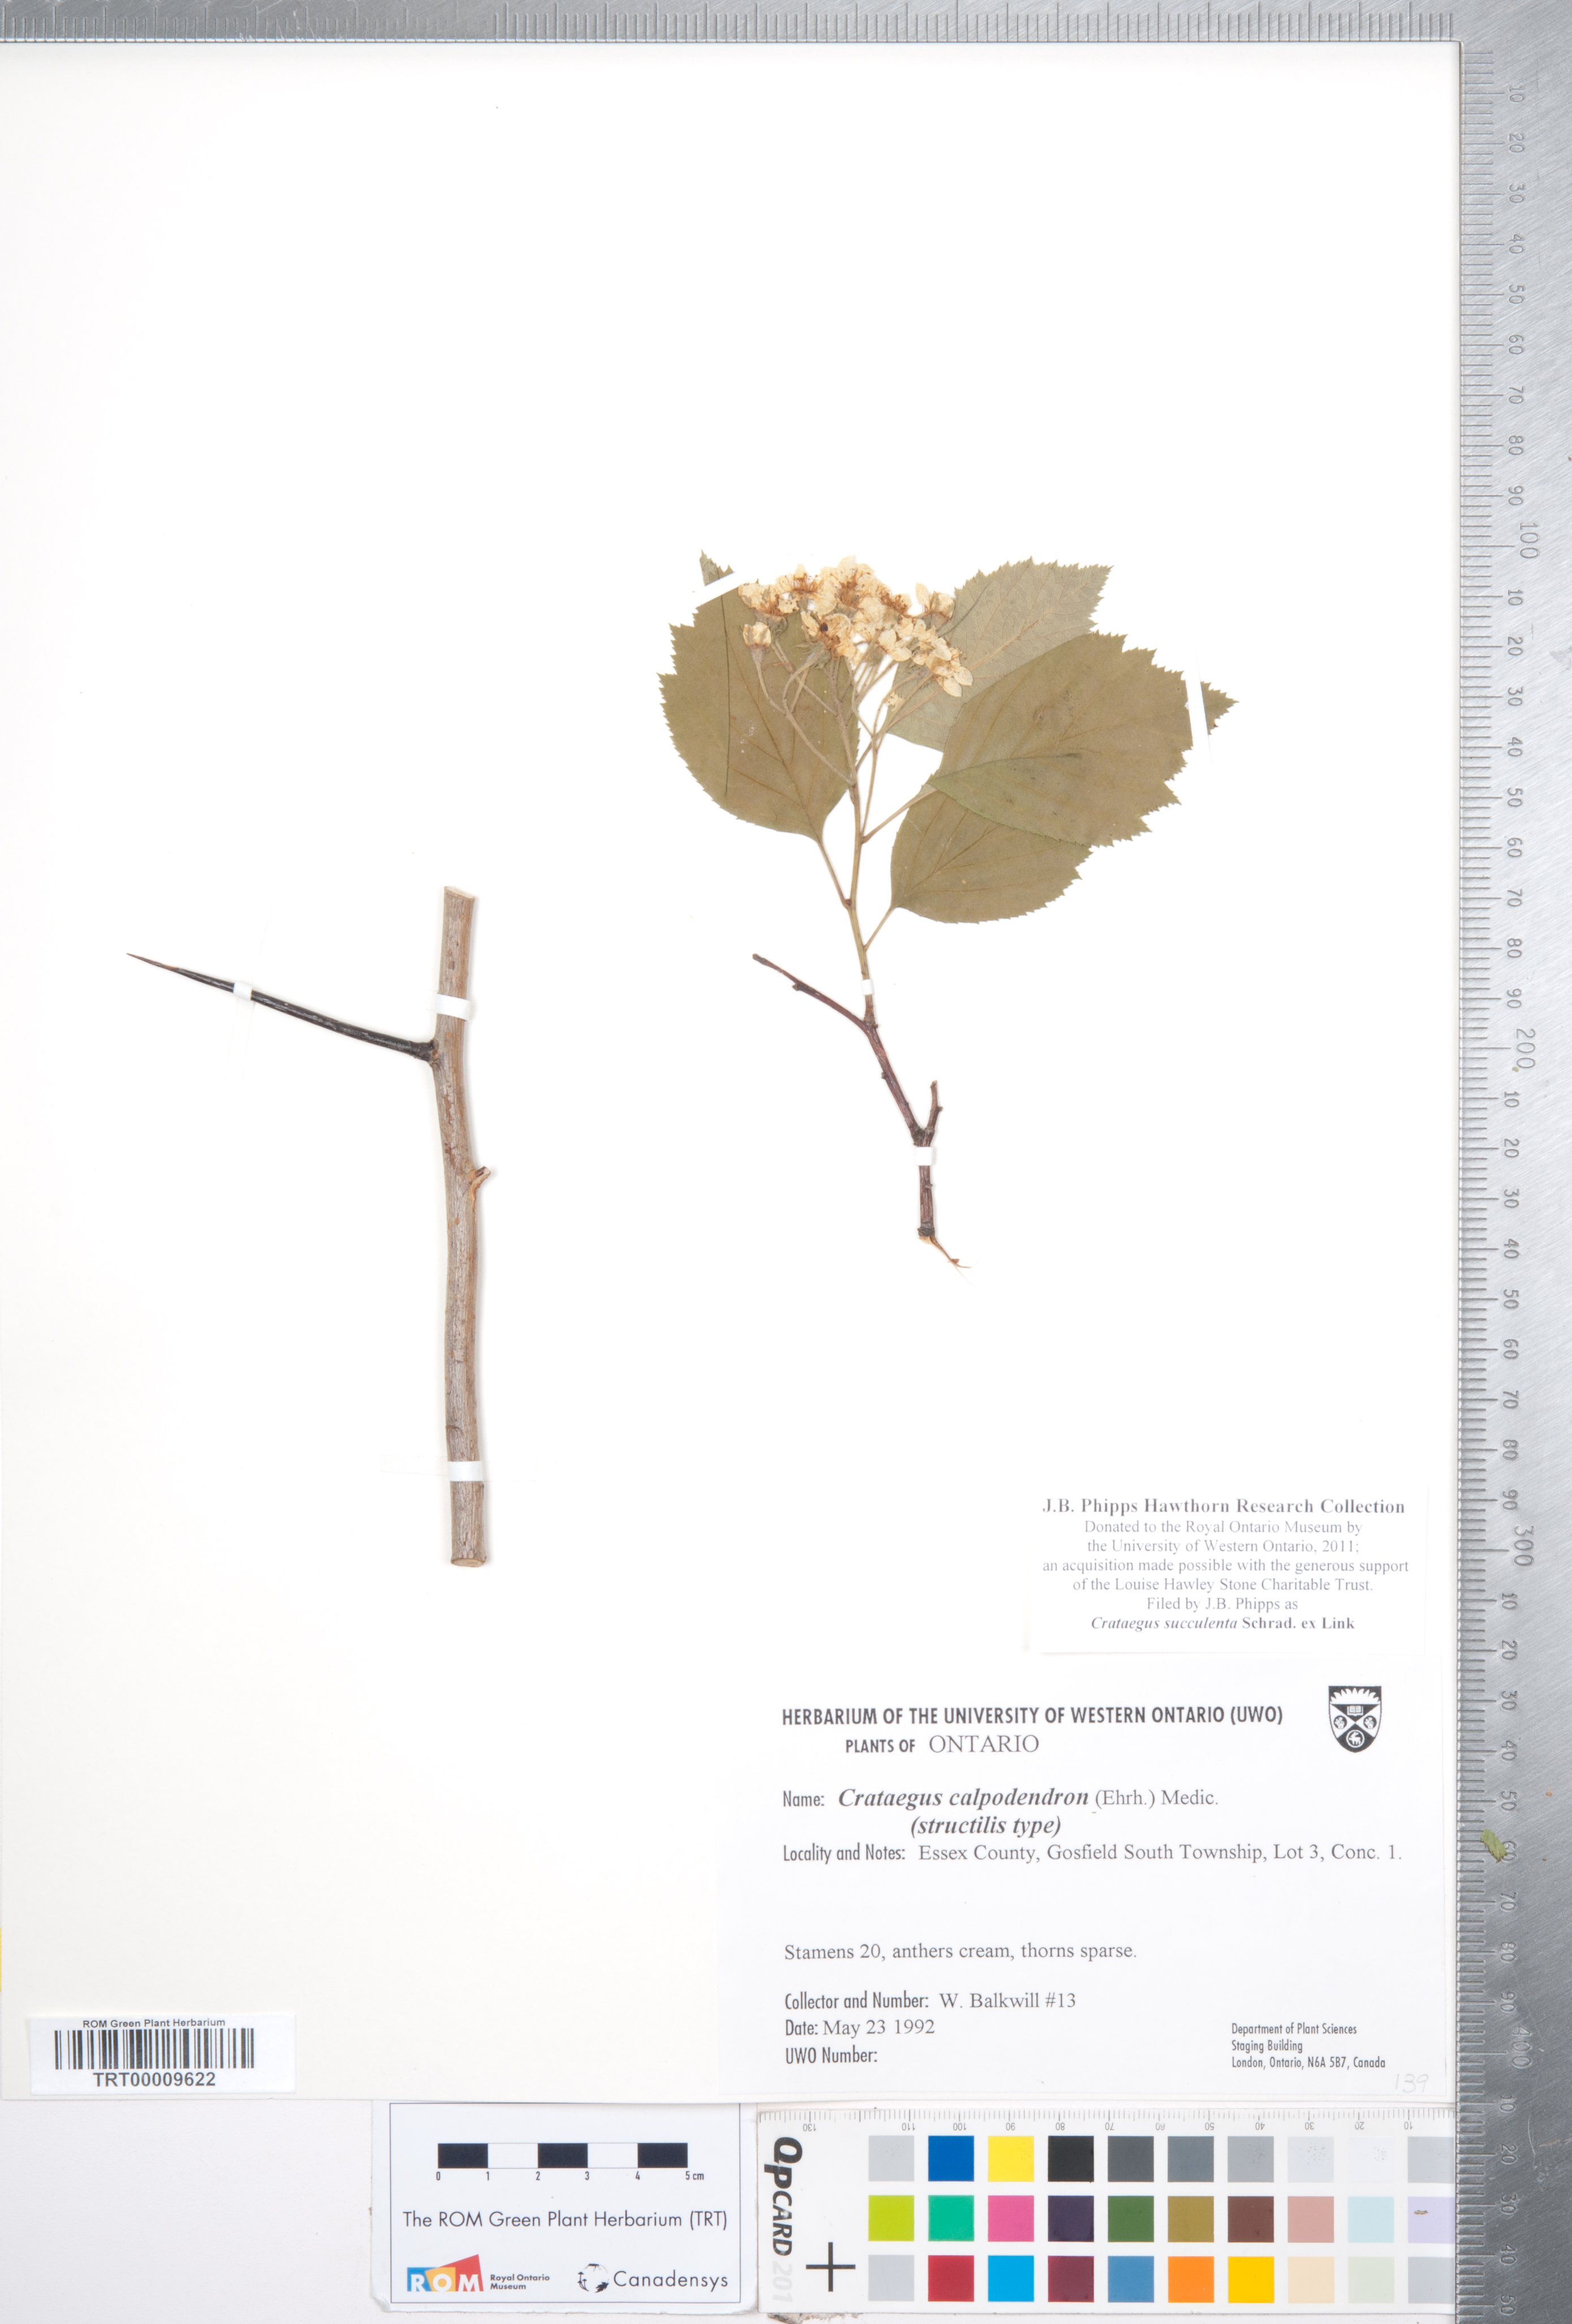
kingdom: Plantae
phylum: Tracheophyta
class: Magnoliopsida
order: Rosales
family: Rosaceae
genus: Crataegus
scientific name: Crataegus succulenta
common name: Fleshy hawthorn
